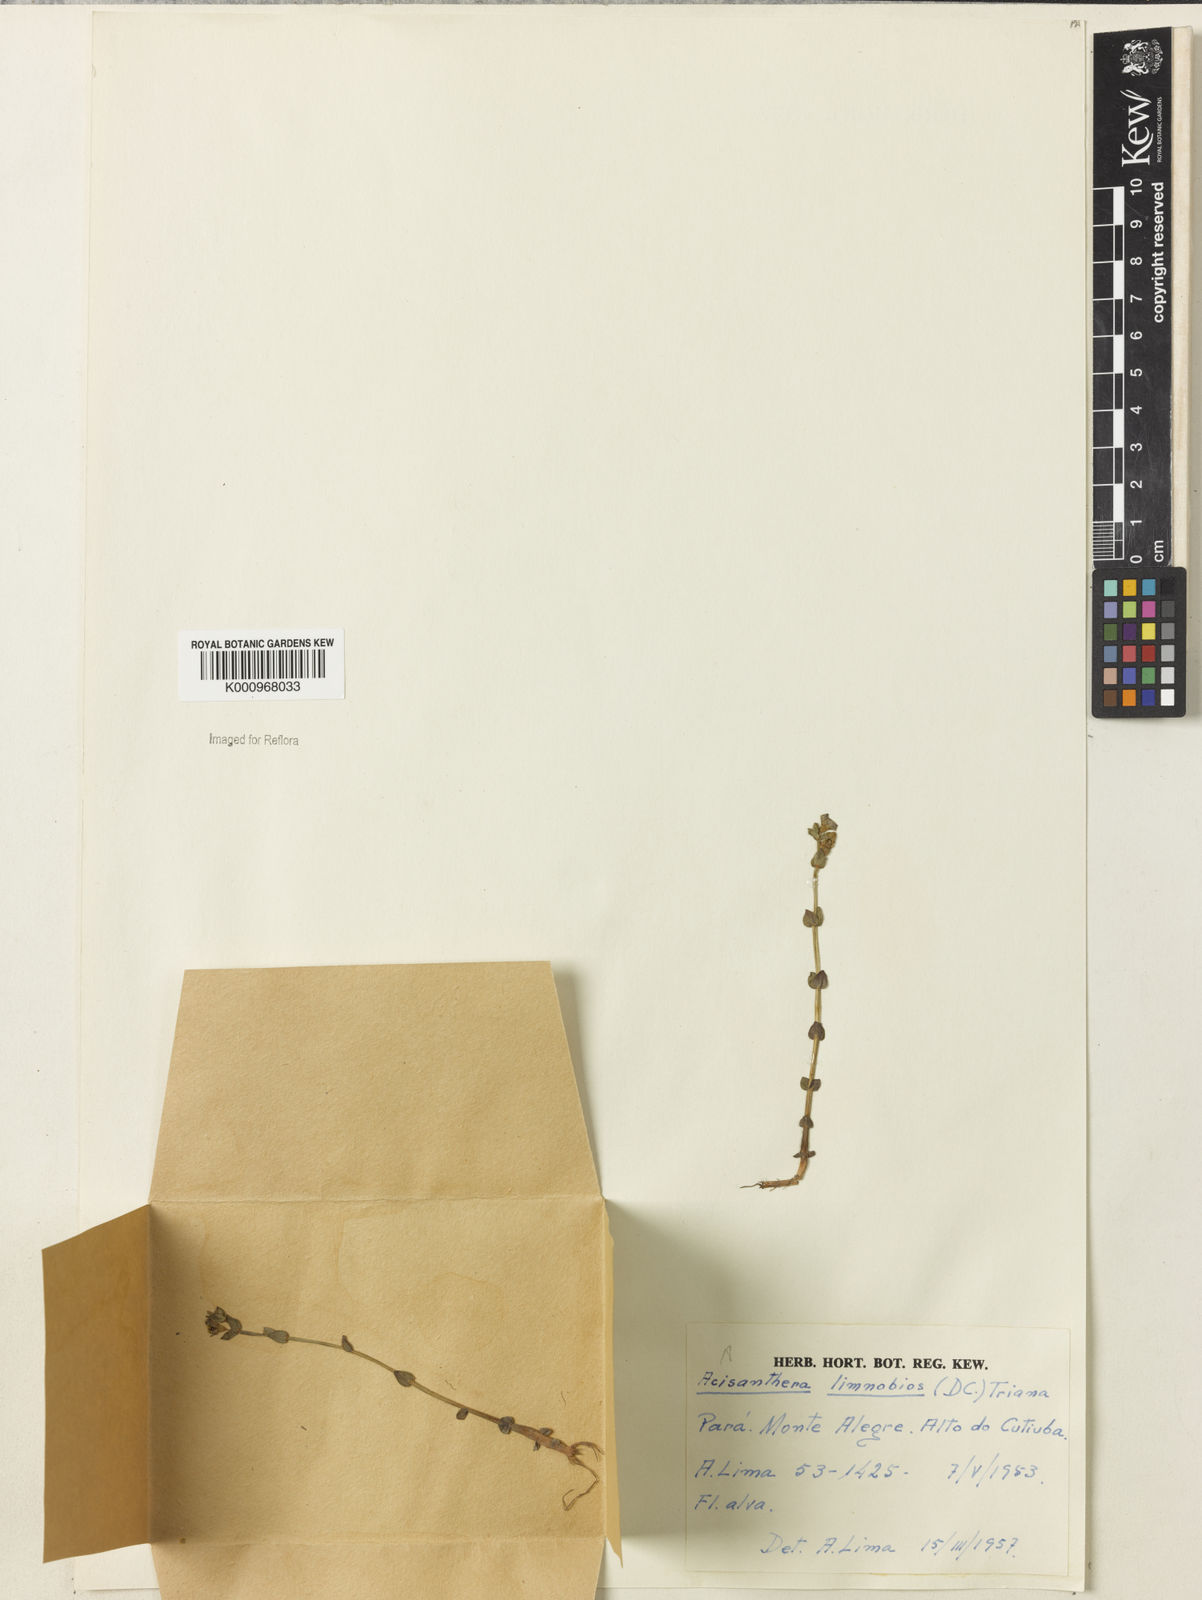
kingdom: Plantae
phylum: Tracheophyta
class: Magnoliopsida
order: Myrtales
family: Melastomataceae
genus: Acisanthera
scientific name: Acisanthera
